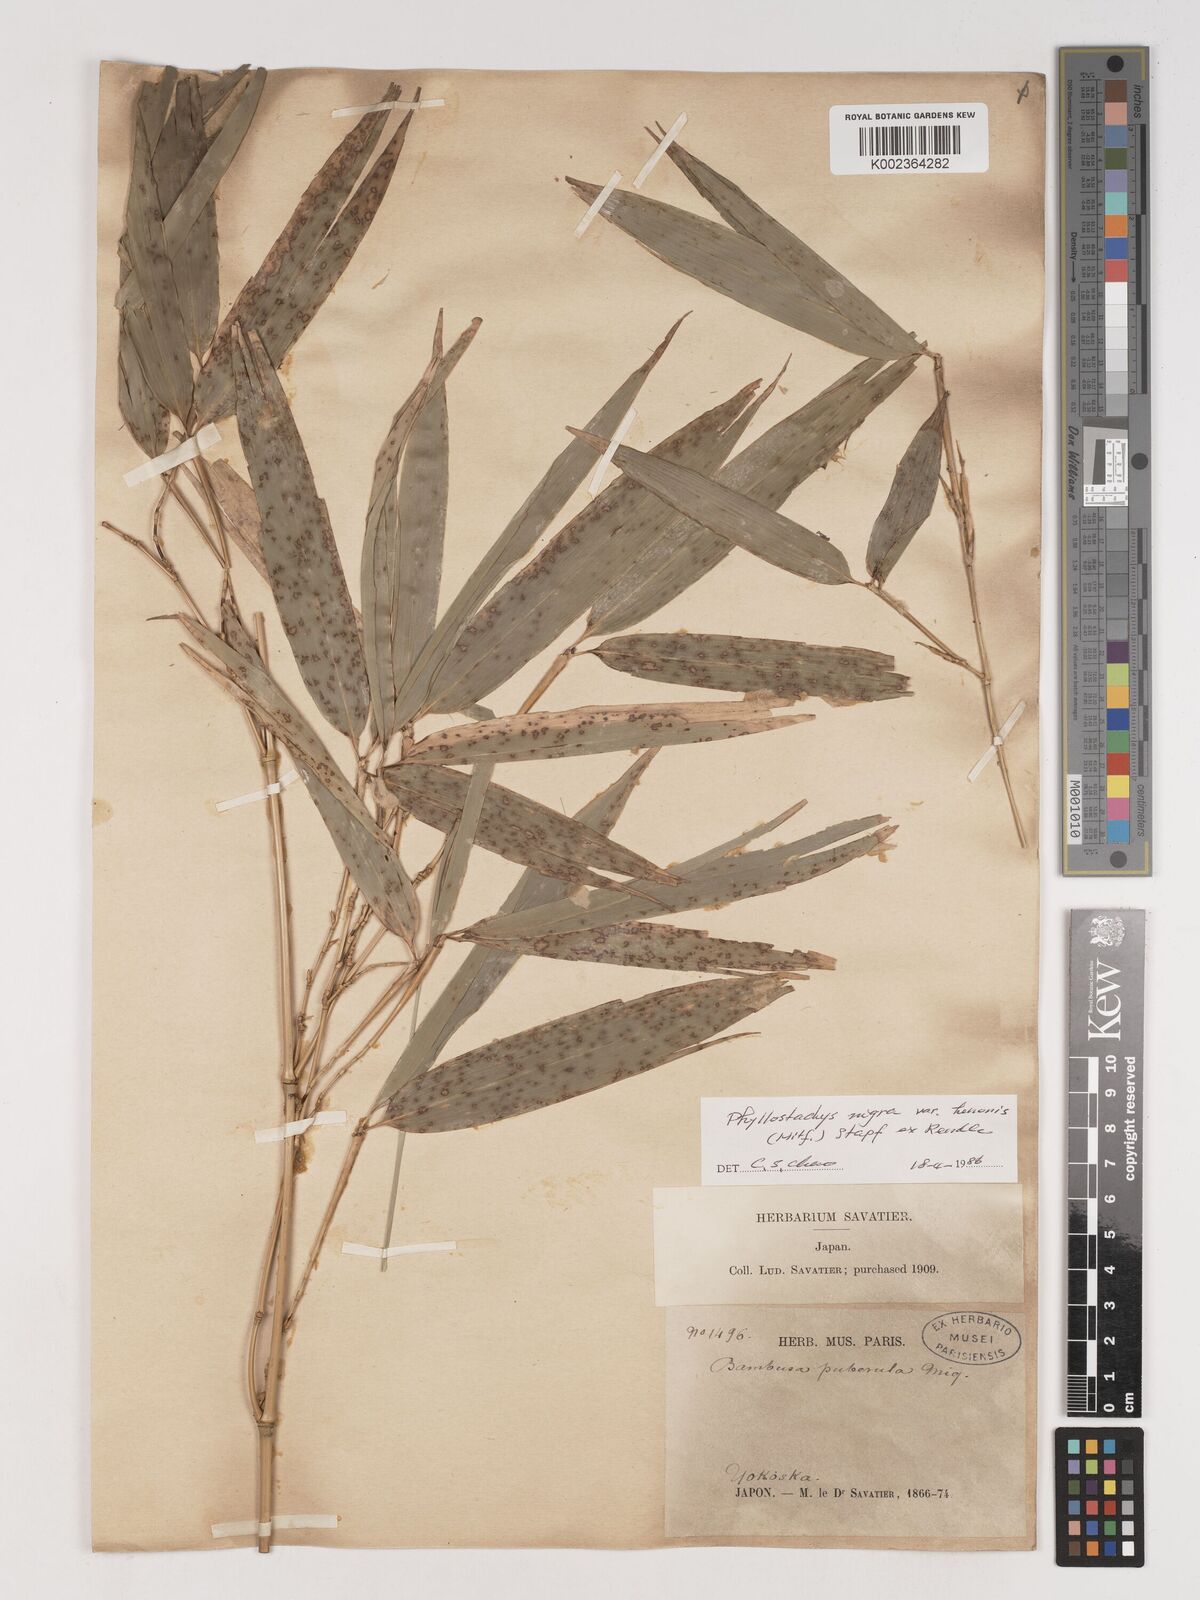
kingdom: Plantae
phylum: Tracheophyta
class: Liliopsida
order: Poales
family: Poaceae
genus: Phyllostachys
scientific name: Phyllostachys nigra
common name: Black bamboo
